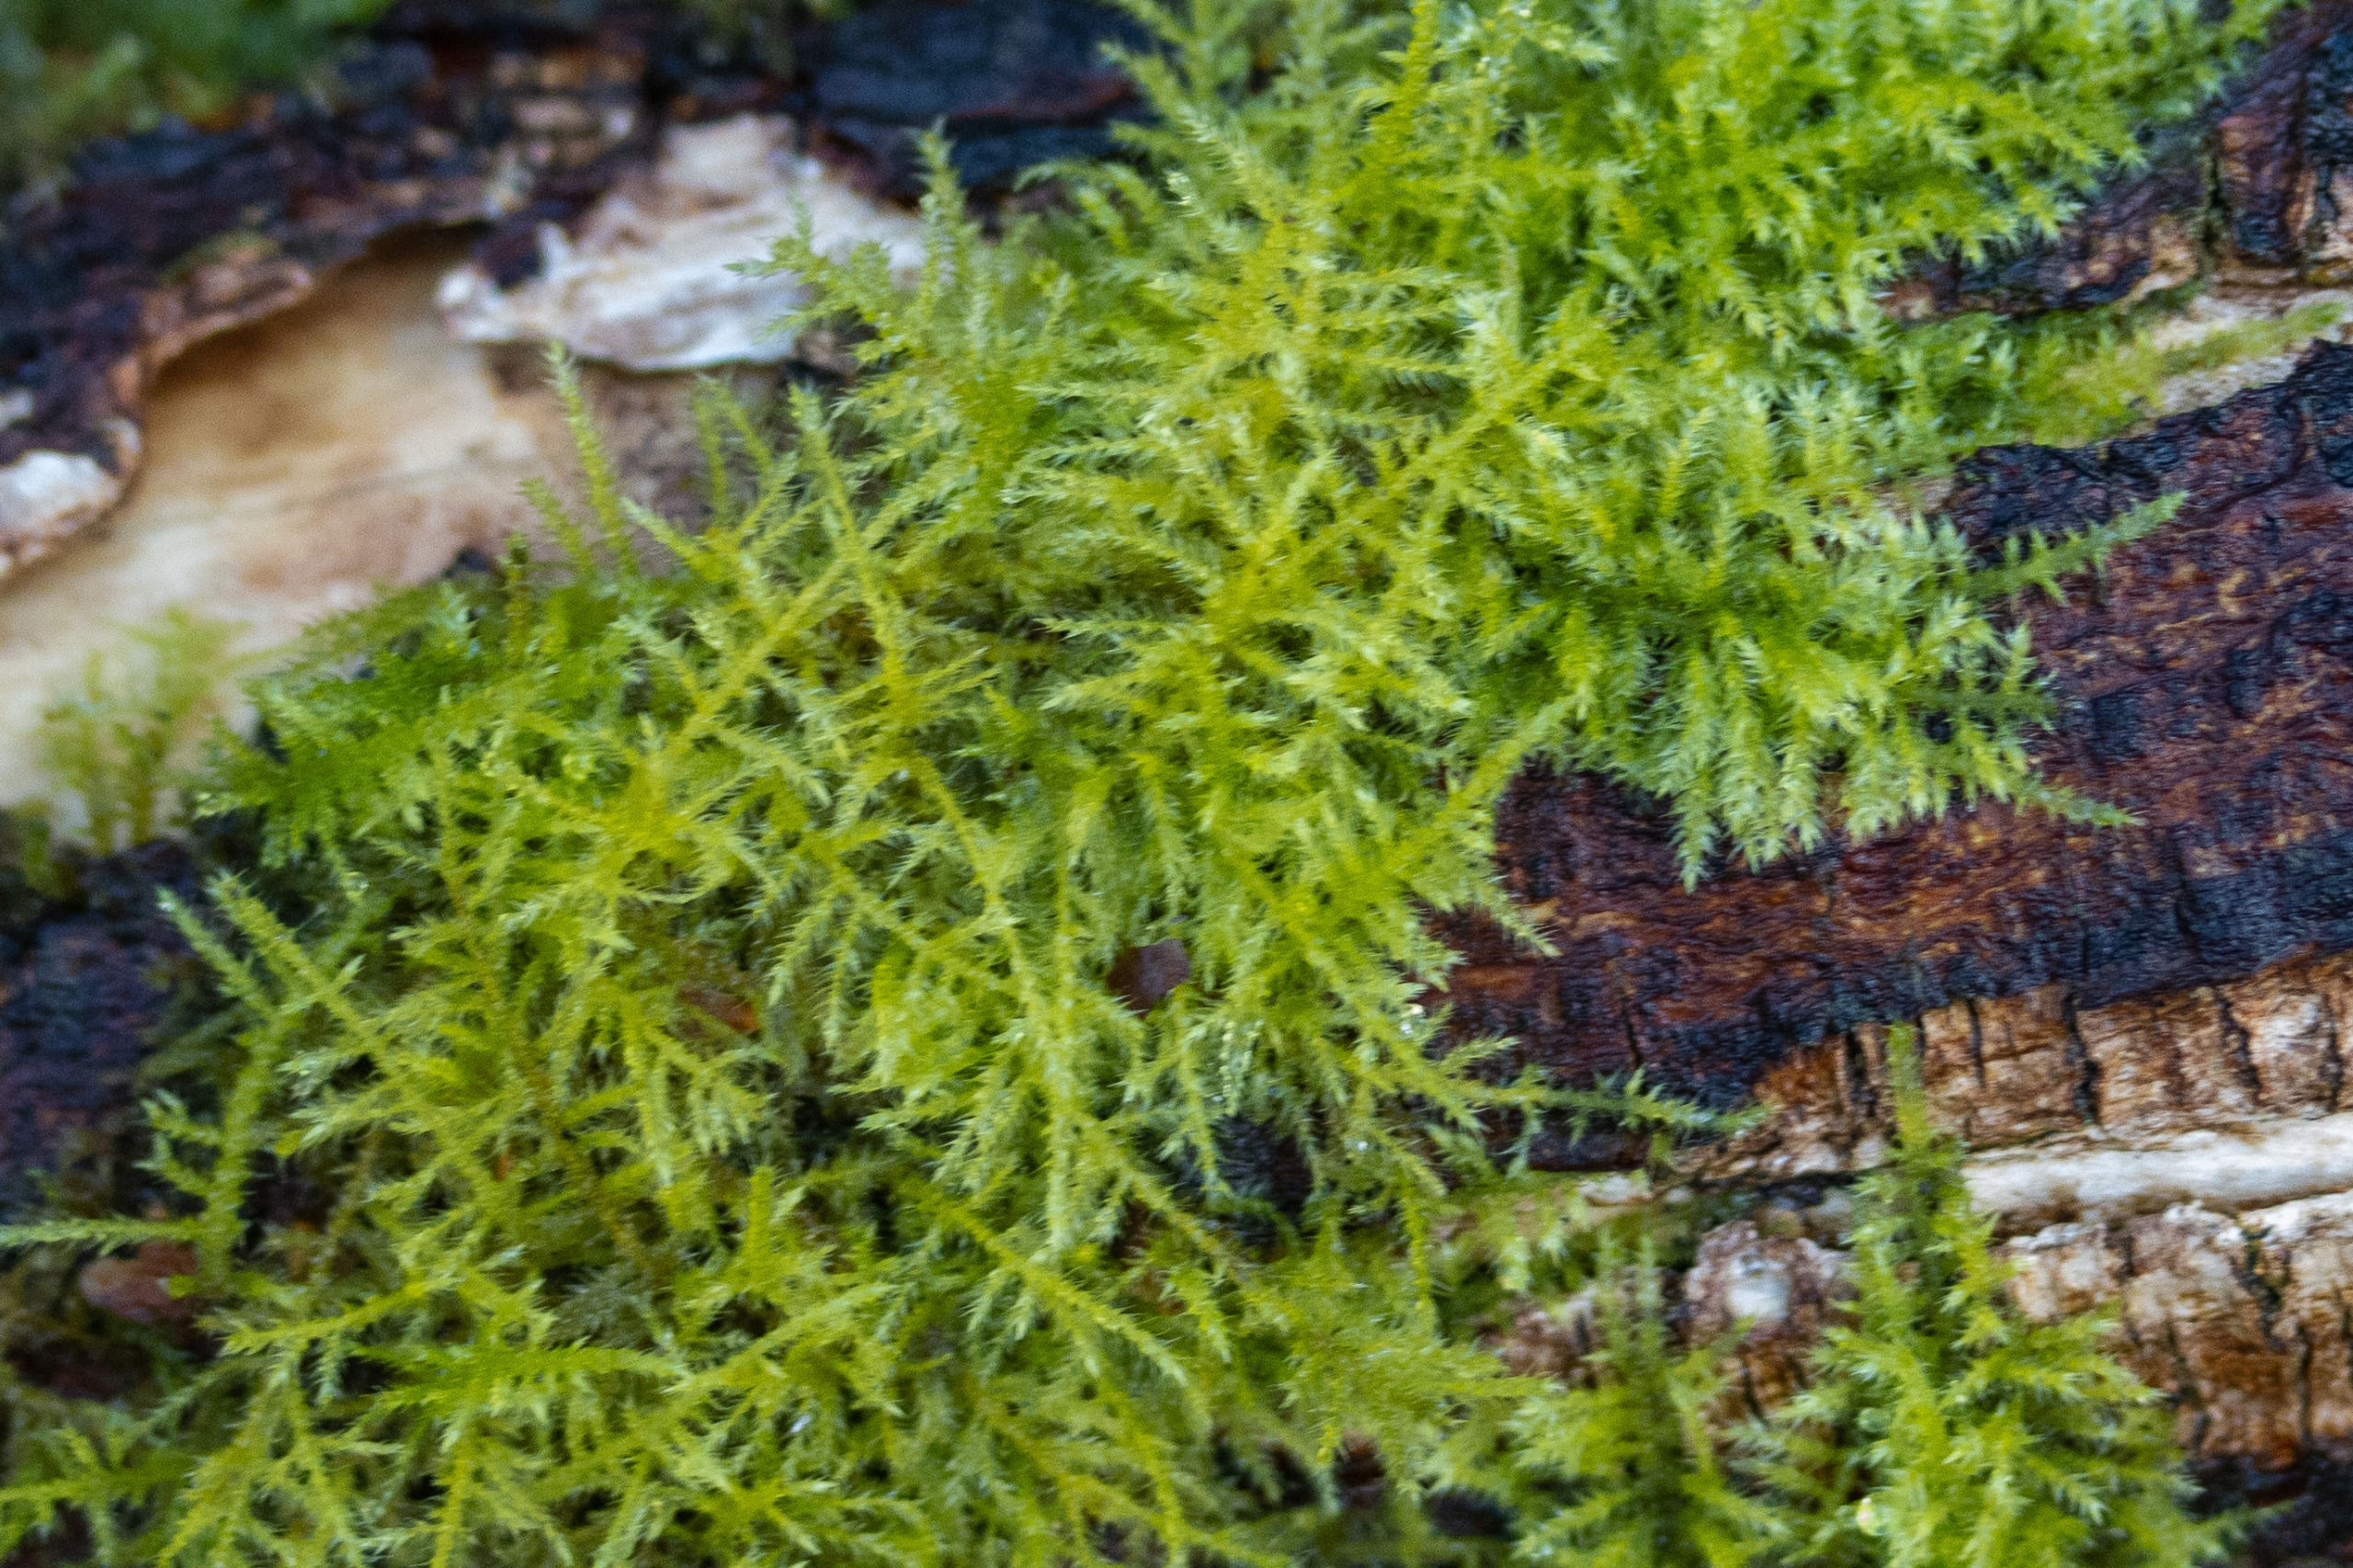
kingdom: Plantae
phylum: Bryophyta
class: Bryopsida
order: Hypnales
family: Brachytheciaceae
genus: Kindbergia
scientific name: Kindbergia praelonga
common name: Forskelligbladet vortetand
